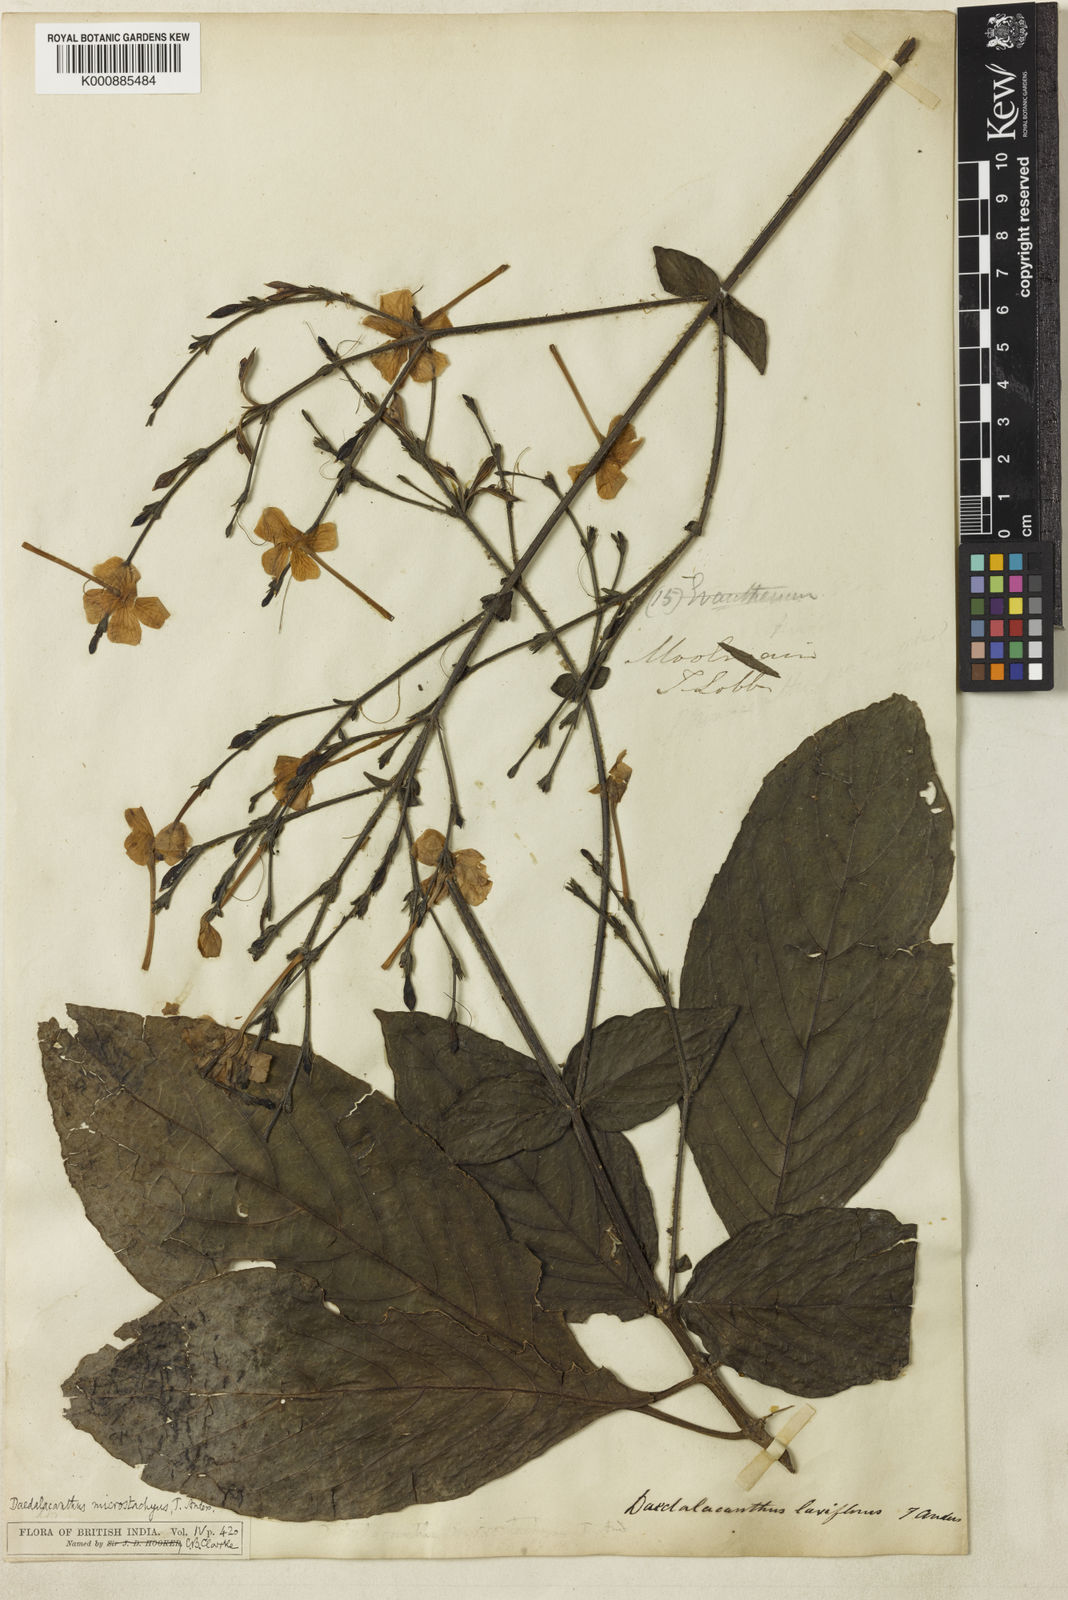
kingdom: Plantae
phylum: Tracheophyta
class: Magnoliopsida
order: Lamiales
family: Acanthaceae
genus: Pseuderanthemum
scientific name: Pseuderanthemum
